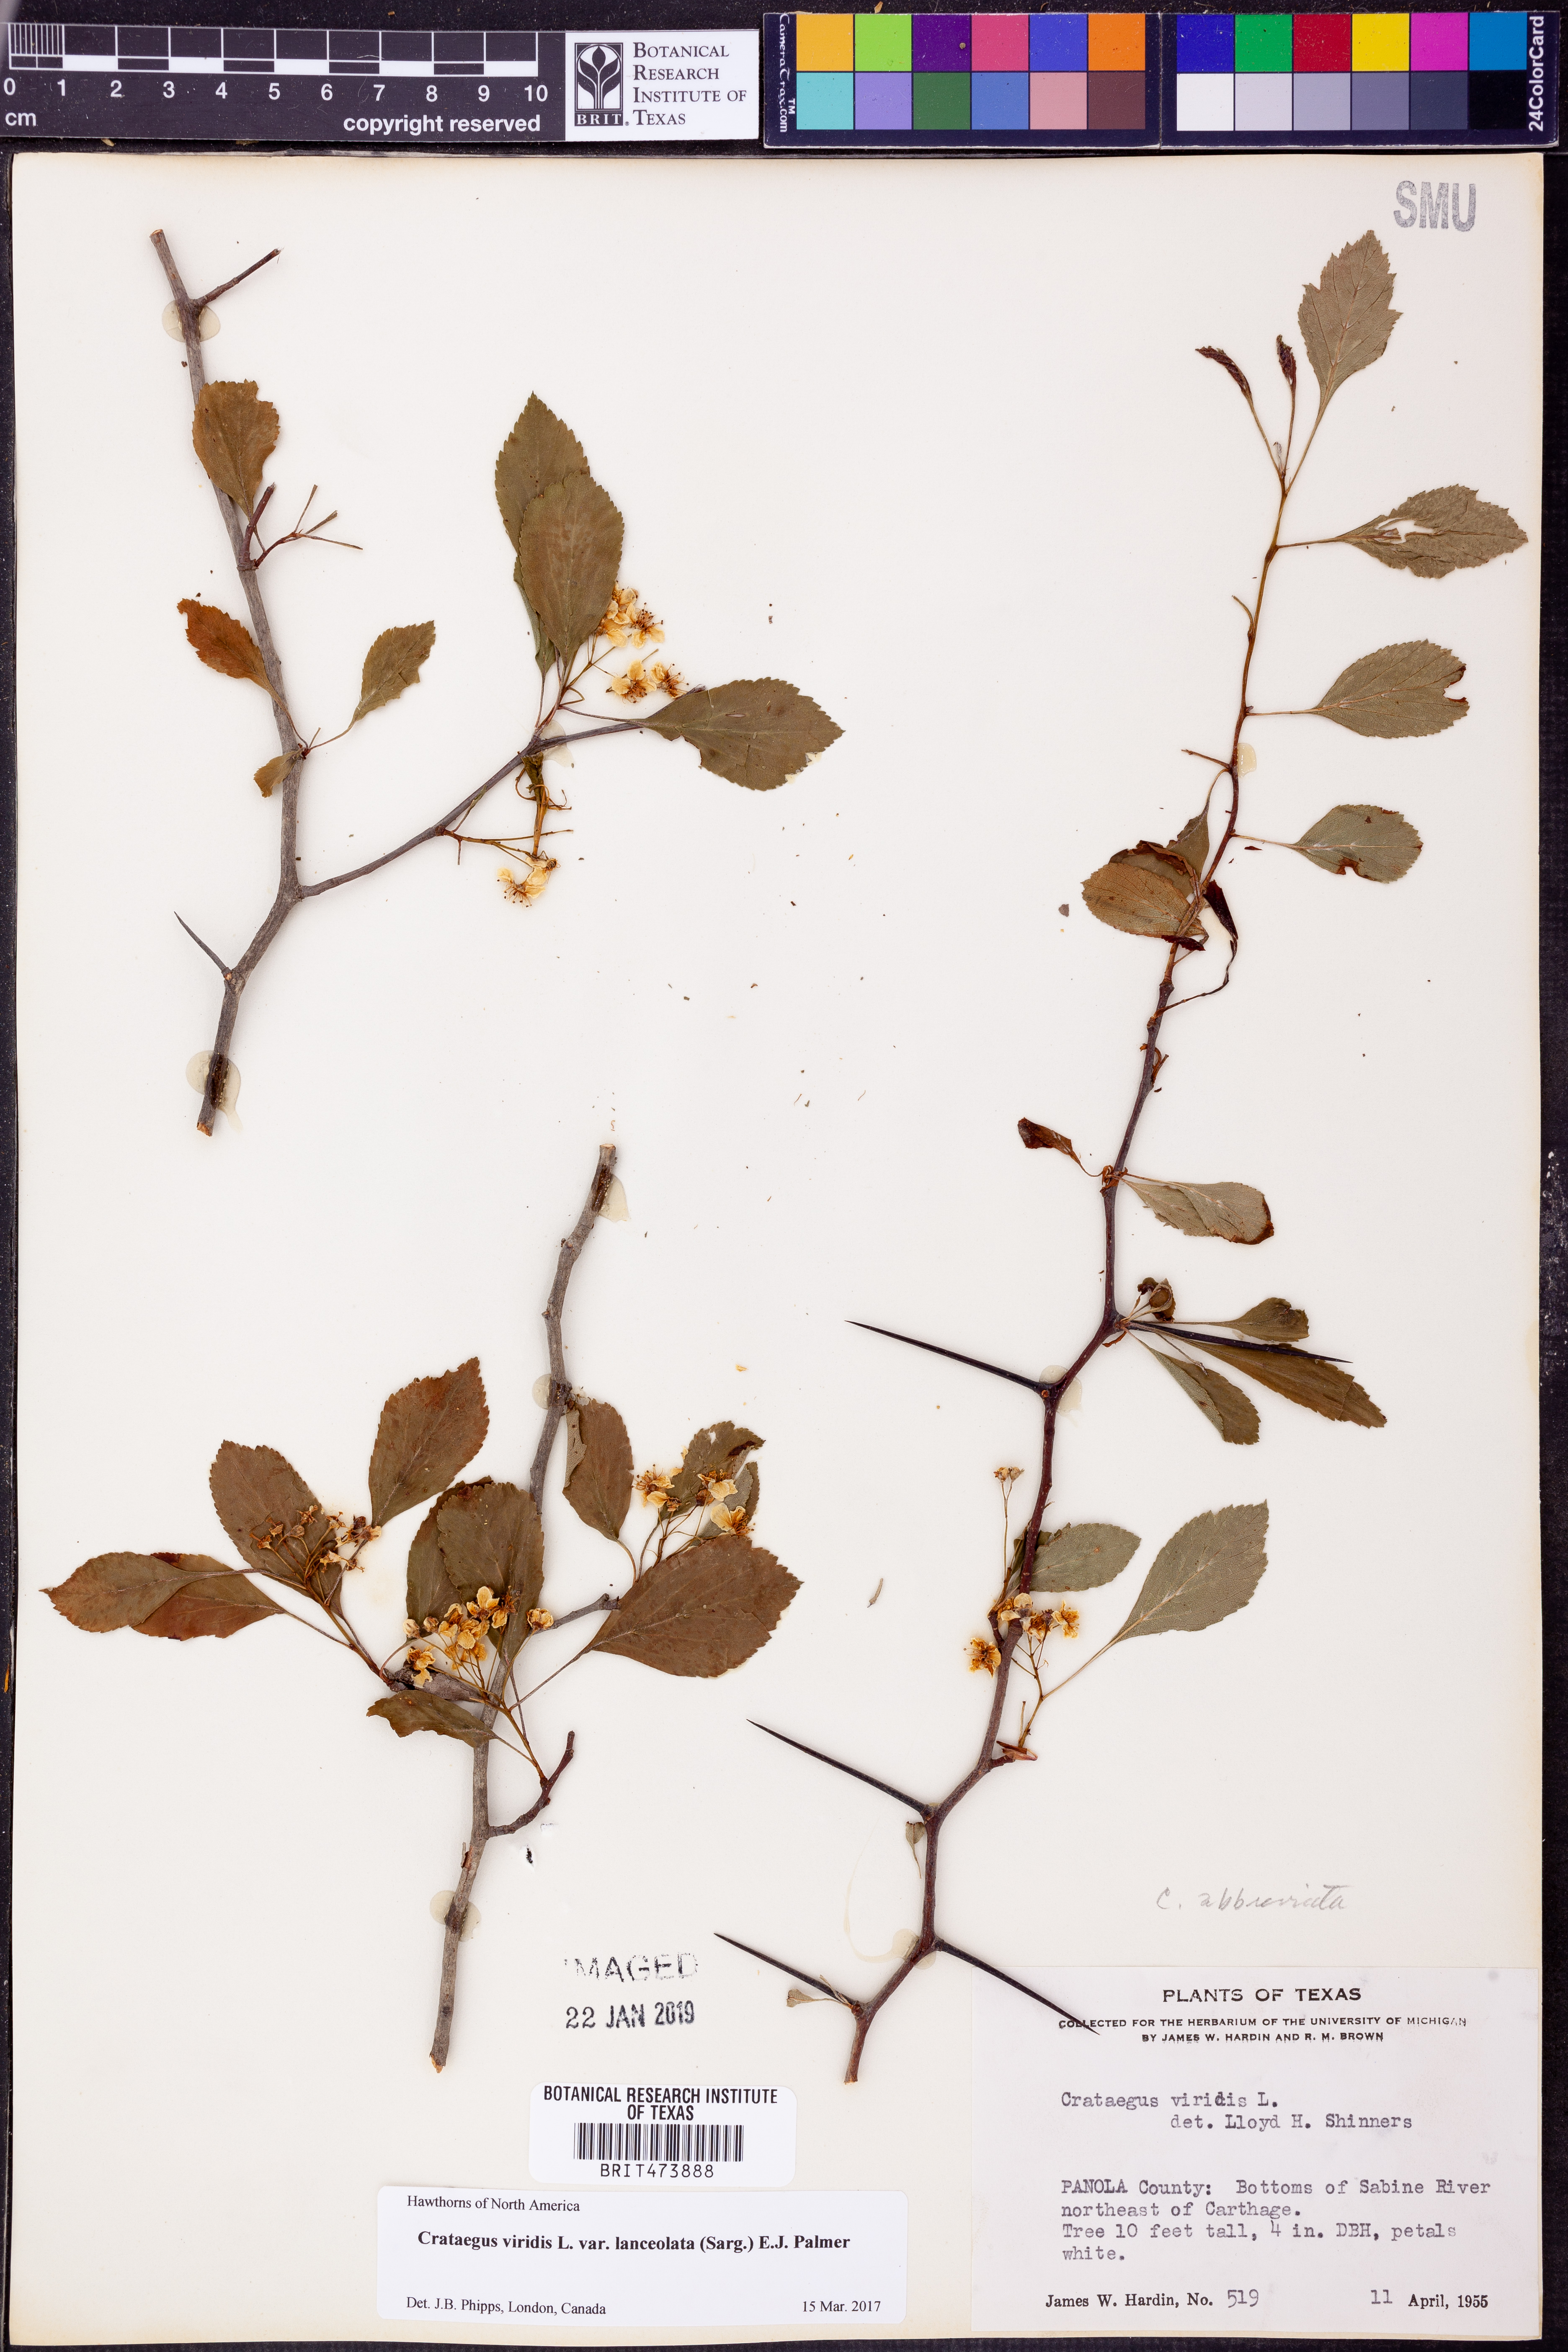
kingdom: Plantae
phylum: Tracheophyta
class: Magnoliopsida
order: Rosales
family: Rosaceae
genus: Crataegus
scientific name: Crataegus viridis
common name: Southernthorn
